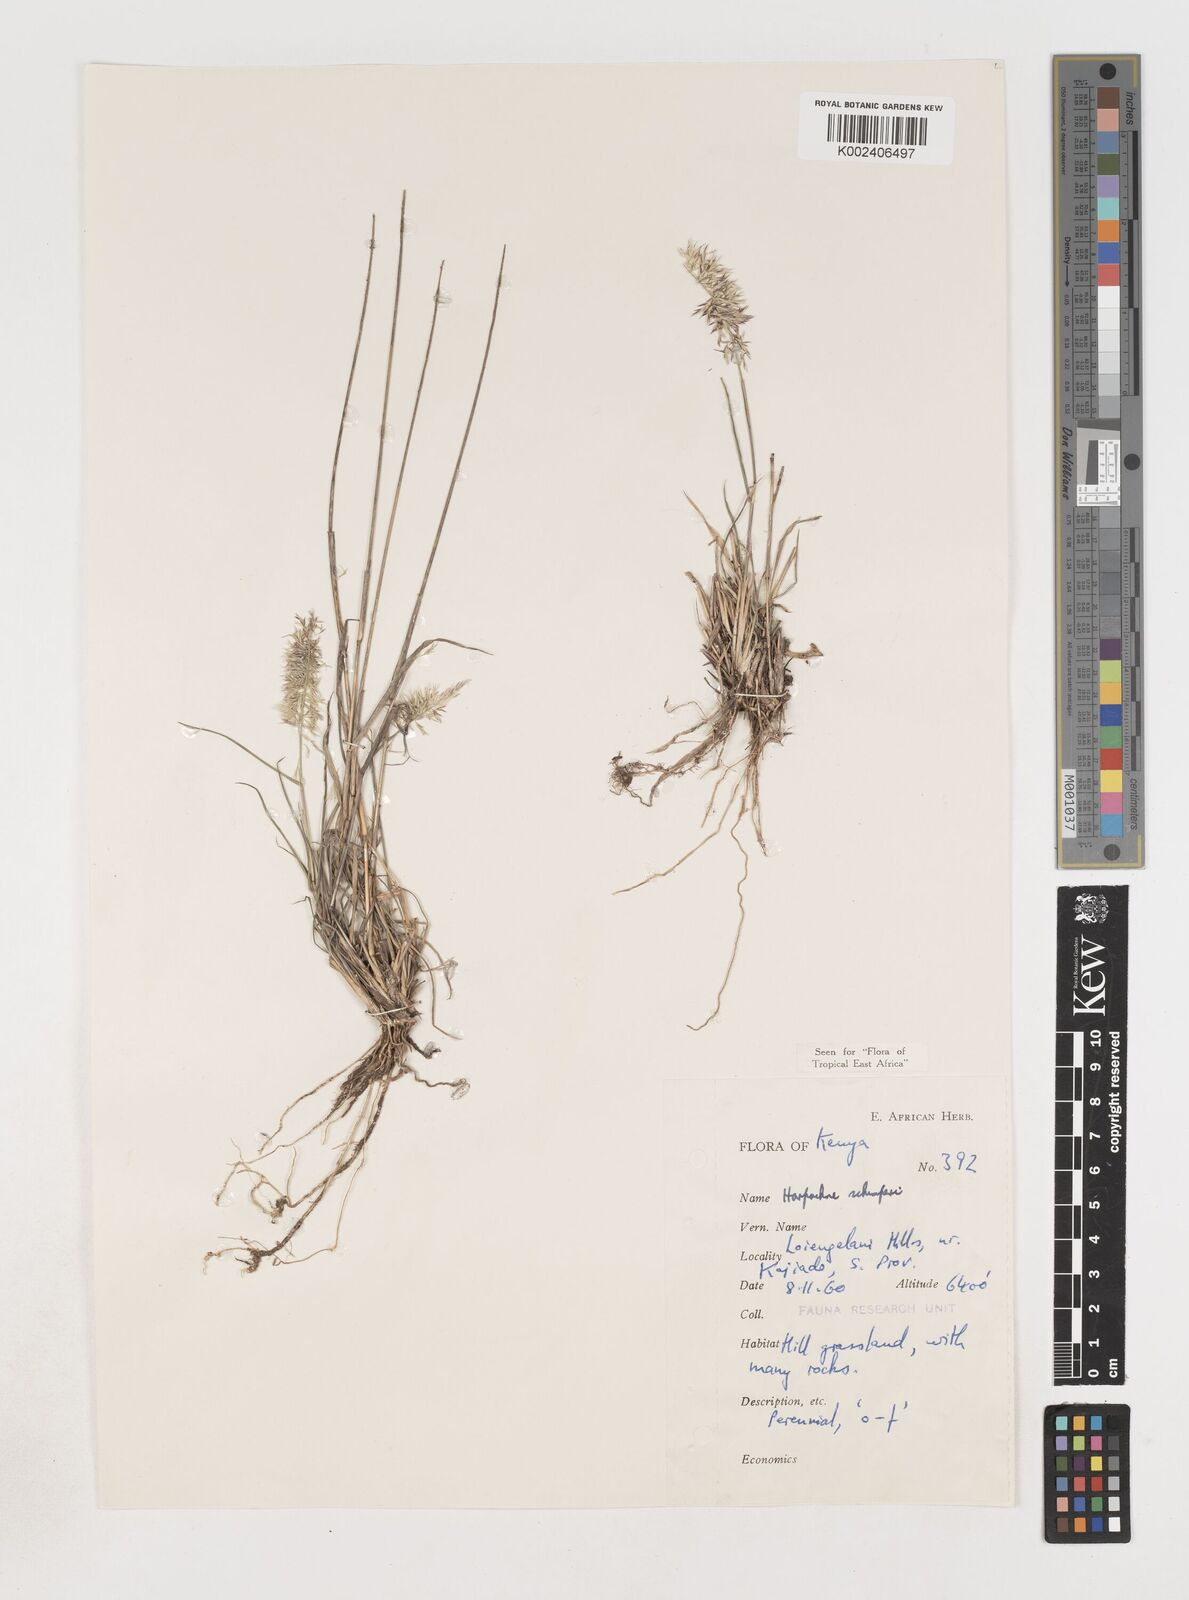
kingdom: Plantae
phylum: Tracheophyta
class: Liliopsida
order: Poales
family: Poaceae
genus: Harpachne
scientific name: Harpachne schimperi
